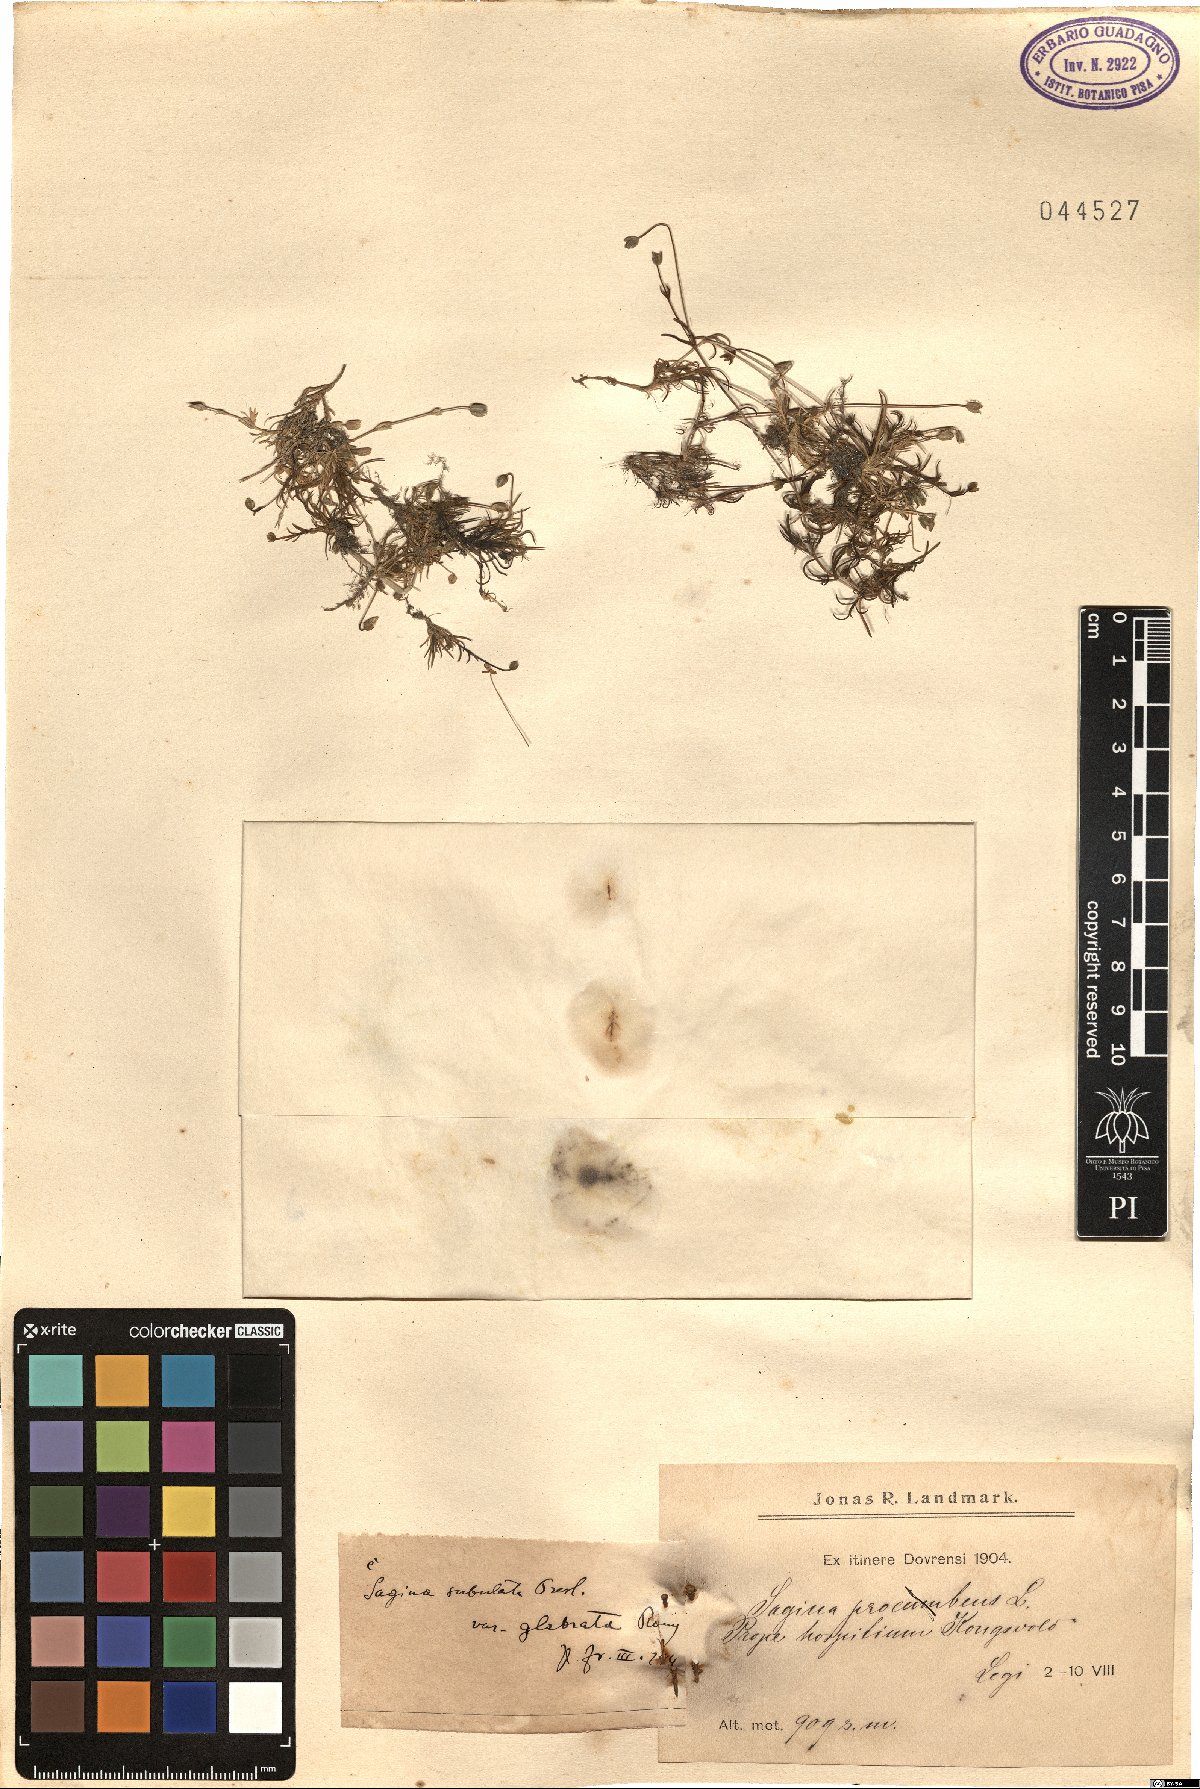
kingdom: Plantae
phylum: Tracheophyta
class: Magnoliopsida
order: Caryophyllales
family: Caryophyllaceae
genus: Colobanthus
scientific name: Colobanthus subulatus
